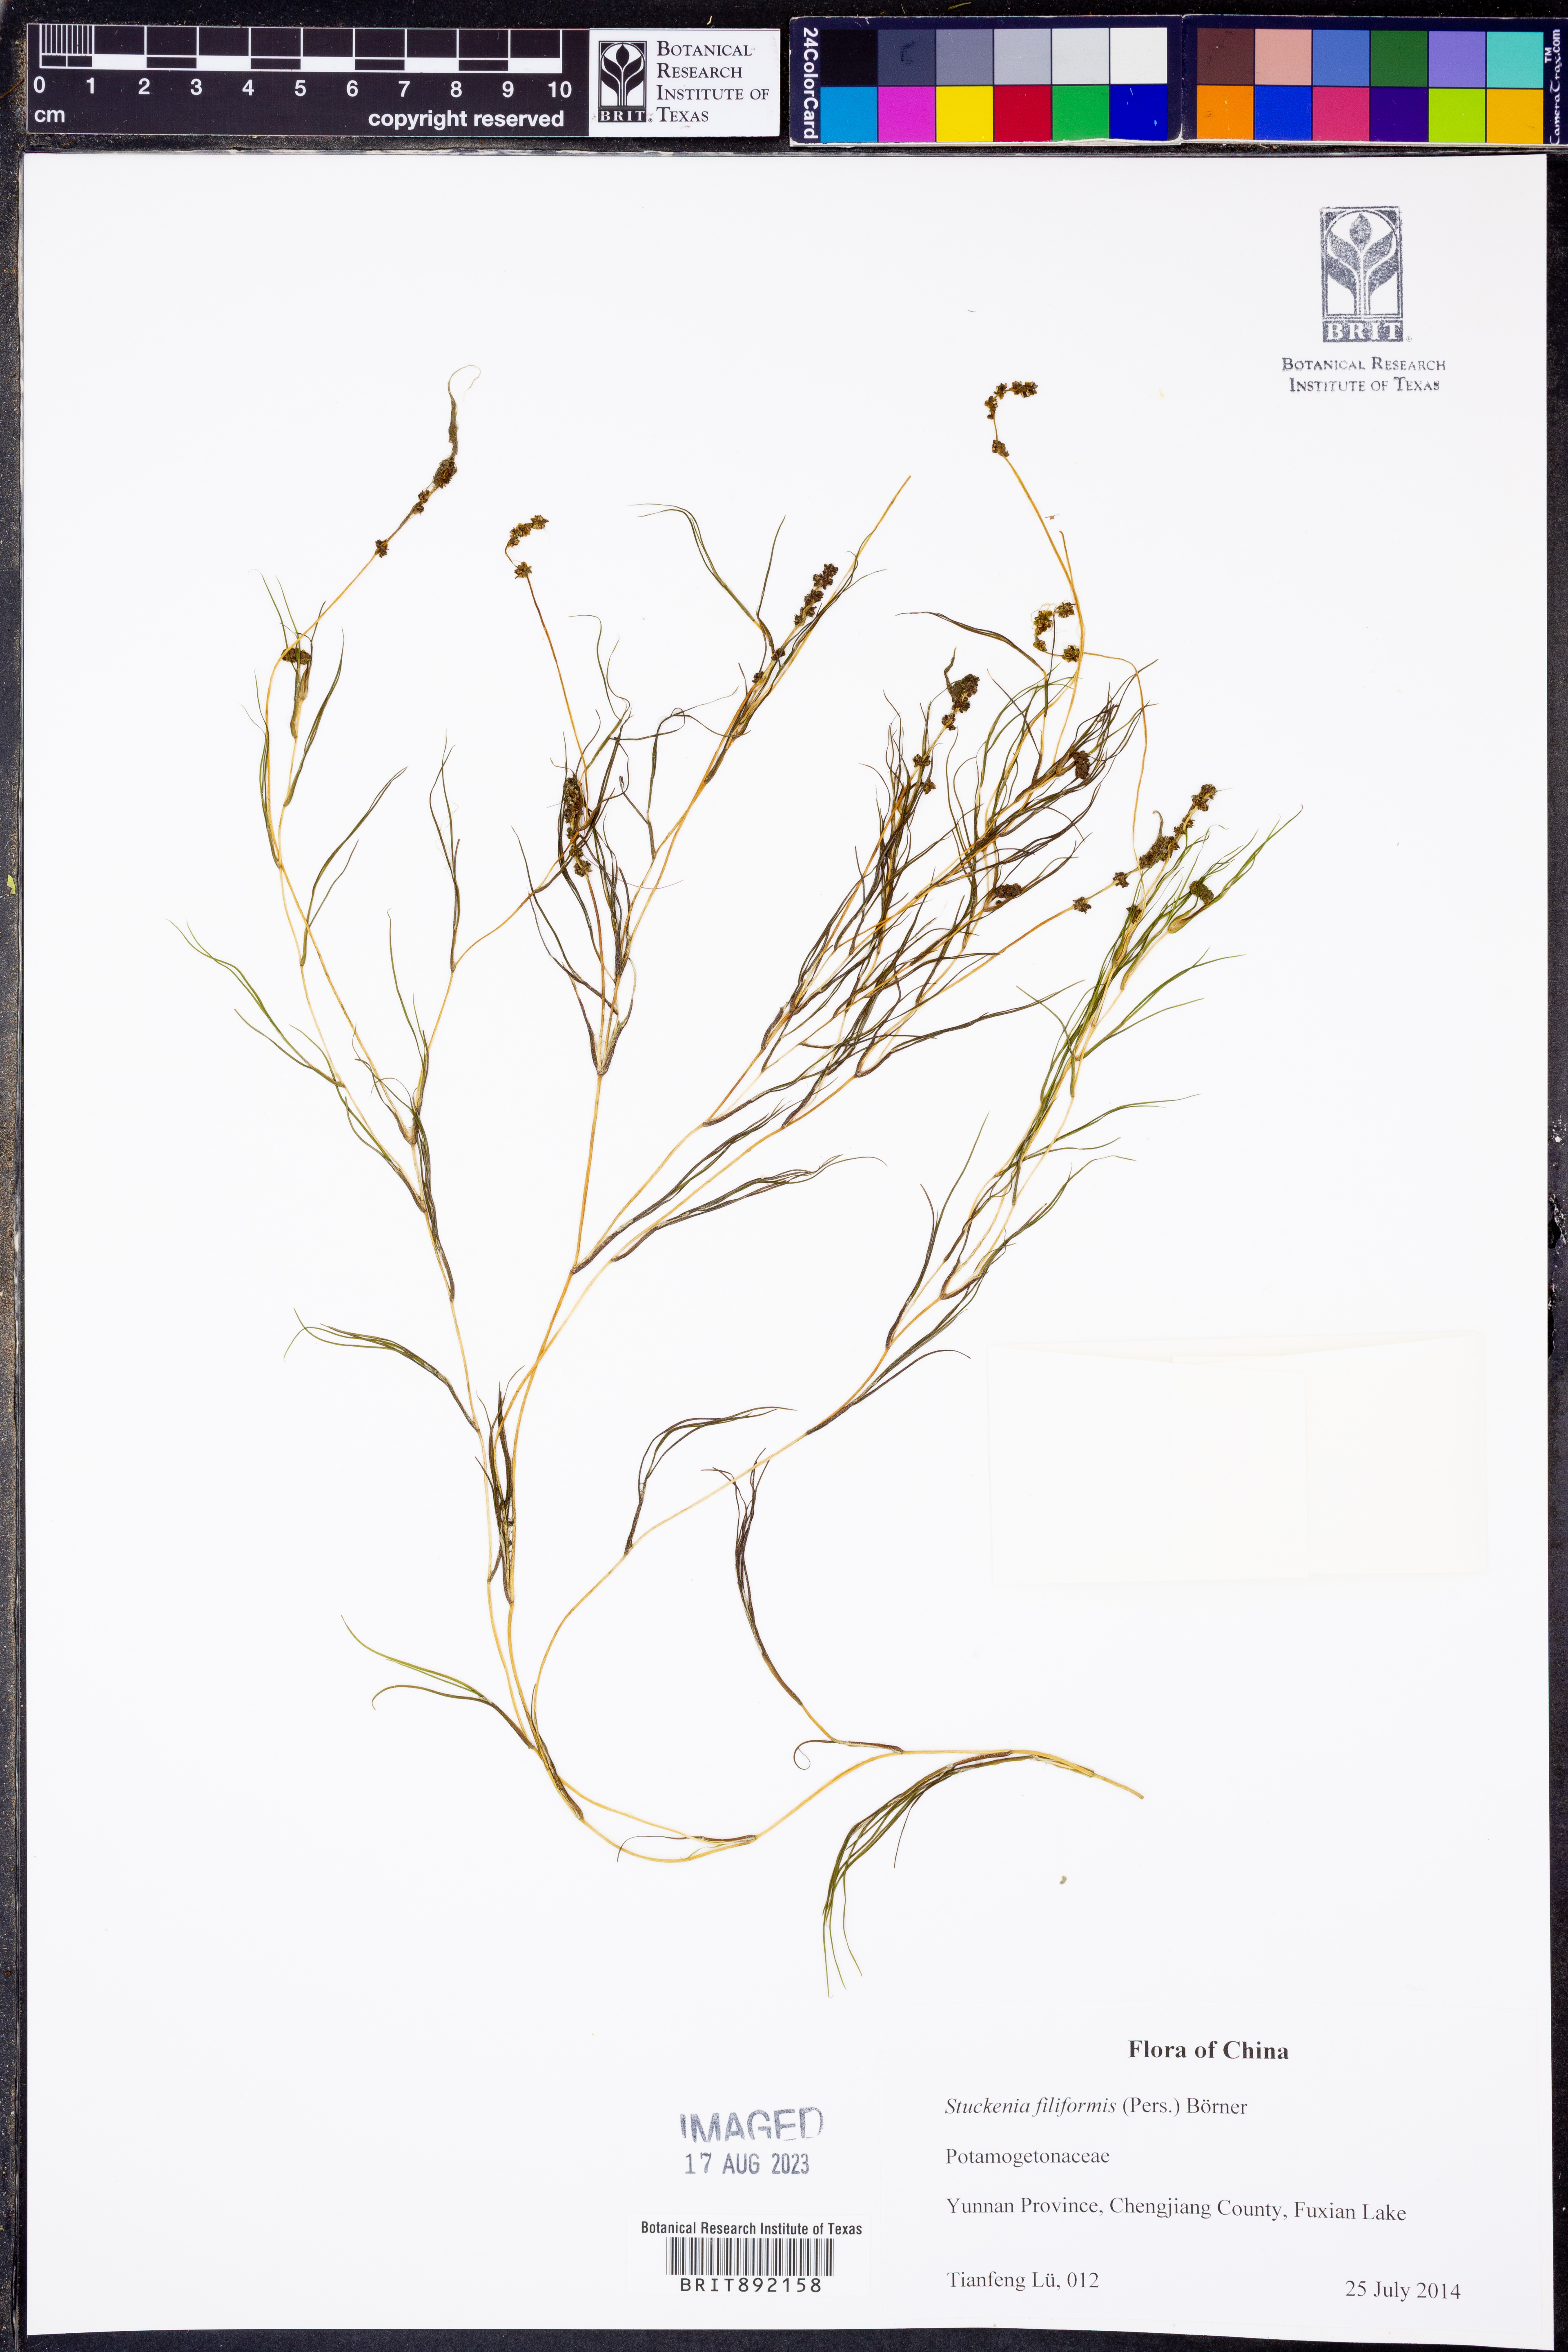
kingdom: Plantae
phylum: Tracheophyta
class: Liliopsida
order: Alismatales
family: Potamogetonaceae
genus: Stuckenia
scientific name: Stuckenia filiformis
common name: Alpine thread-leaved pondweed
